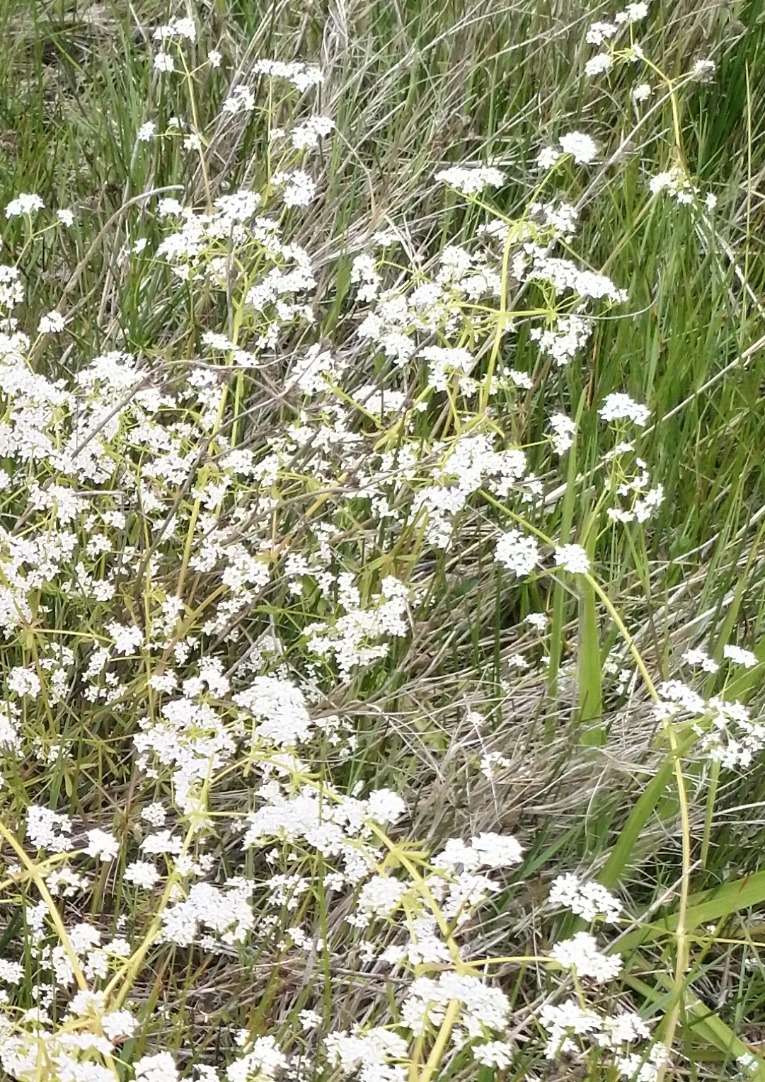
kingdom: Plantae
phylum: Tracheophyta
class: Magnoliopsida
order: Gentianales
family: Rubiaceae
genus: Galium
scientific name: Galium palustre
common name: Kær-snerre
